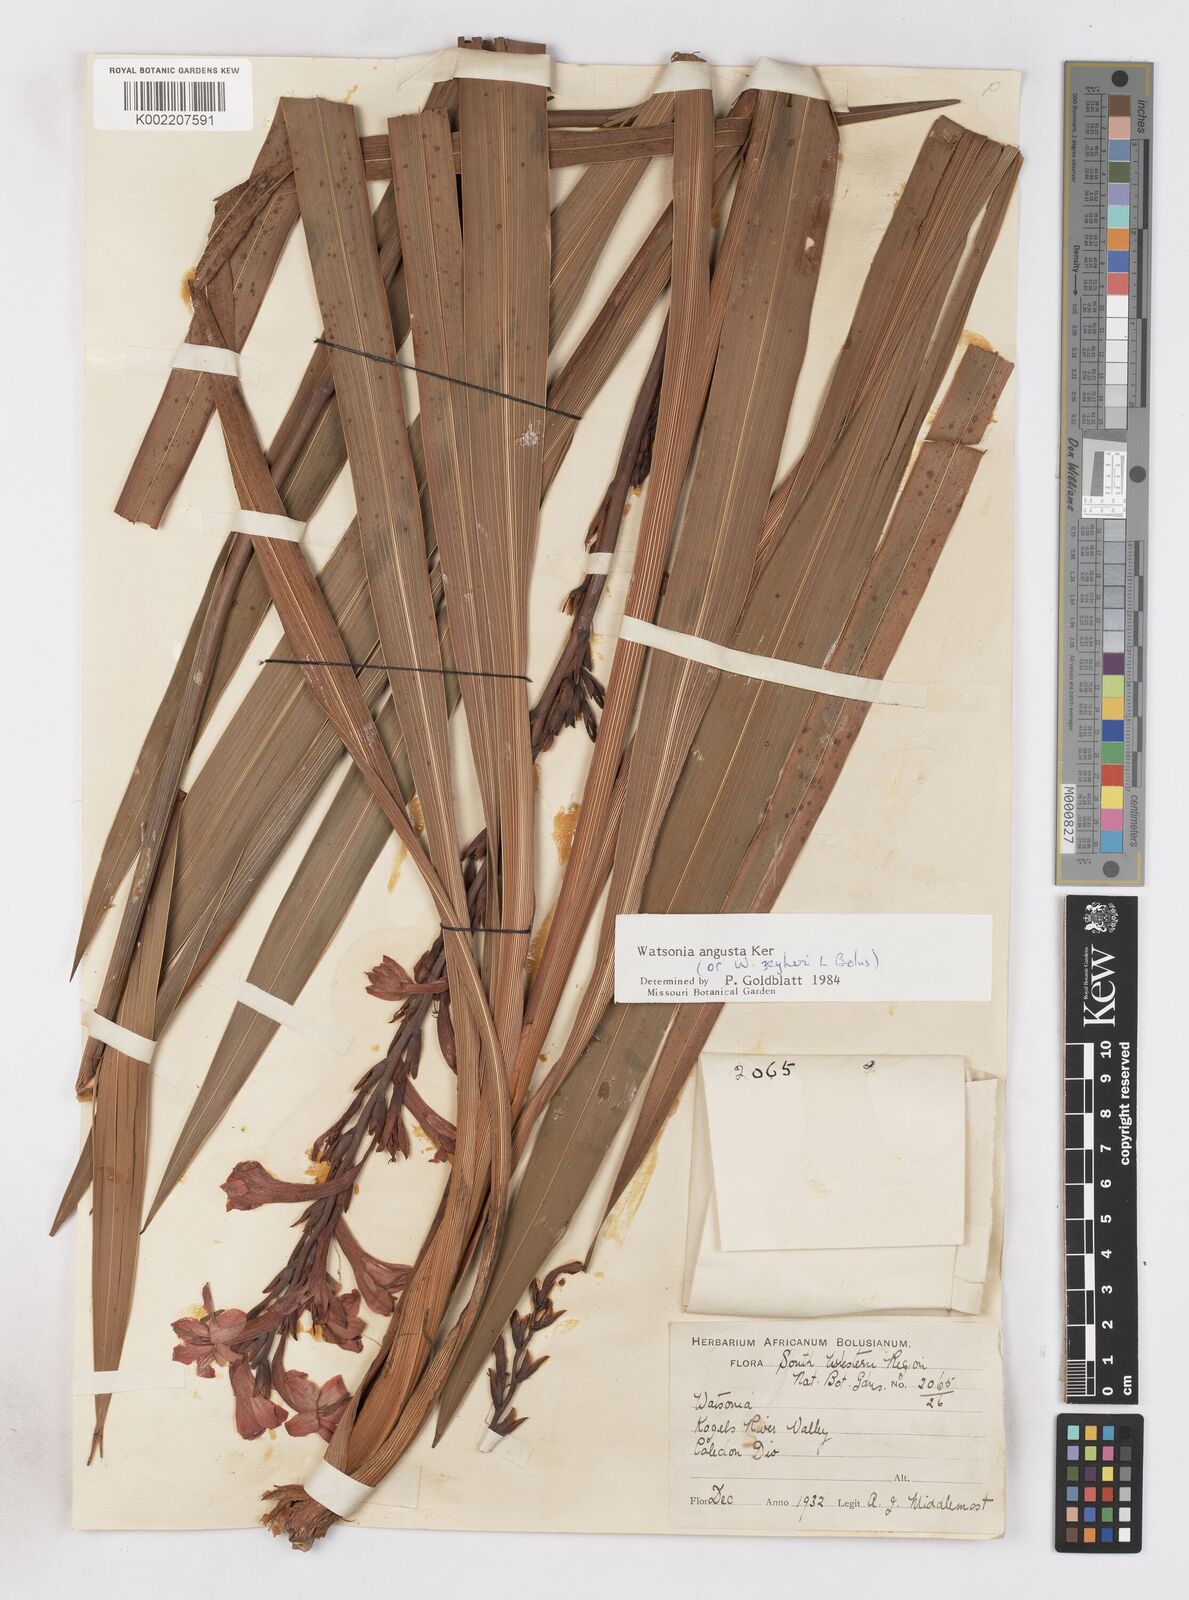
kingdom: Plantae
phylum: Tracheophyta
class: Liliopsida
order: Asparagales
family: Iridaceae
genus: Watsonia
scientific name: Watsonia angusta
